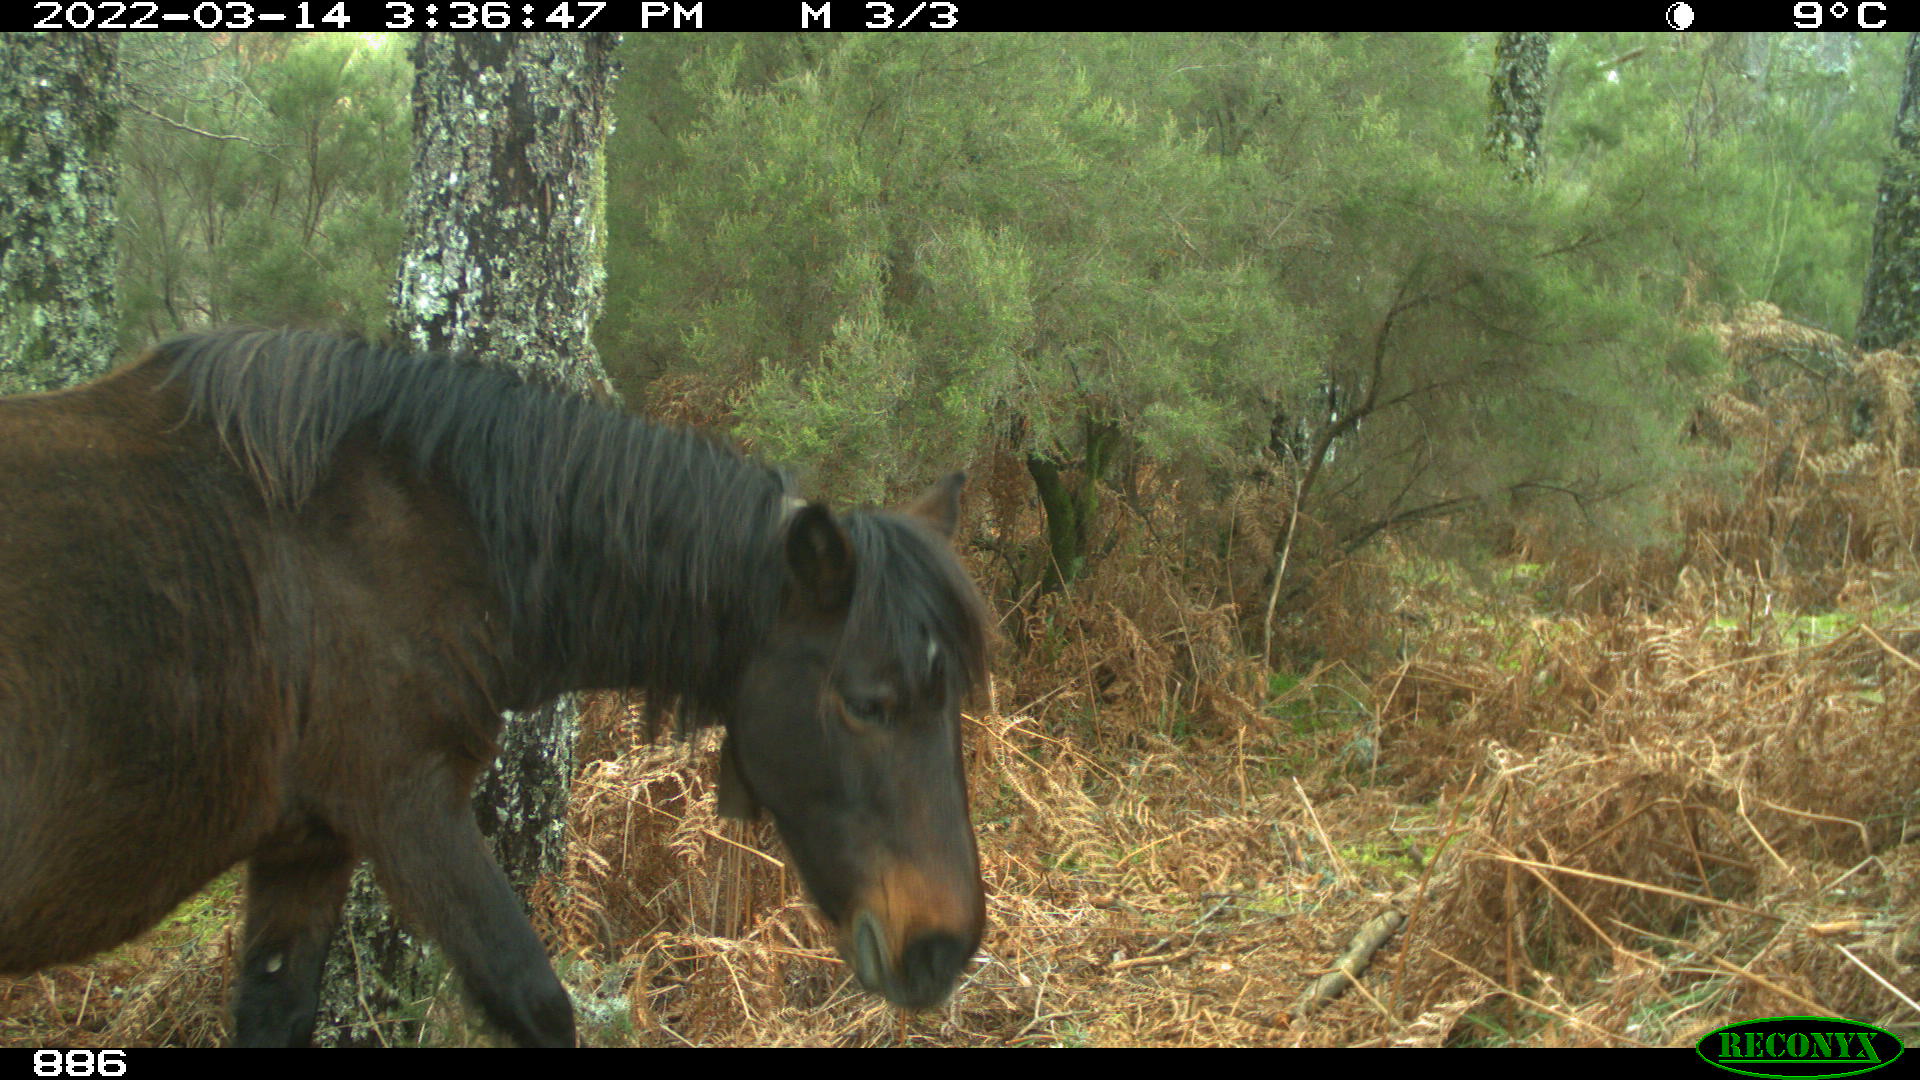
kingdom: Animalia
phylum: Chordata
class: Mammalia
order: Perissodactyla
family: Equidae
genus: Equus
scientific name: Equus caballus
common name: Horse
